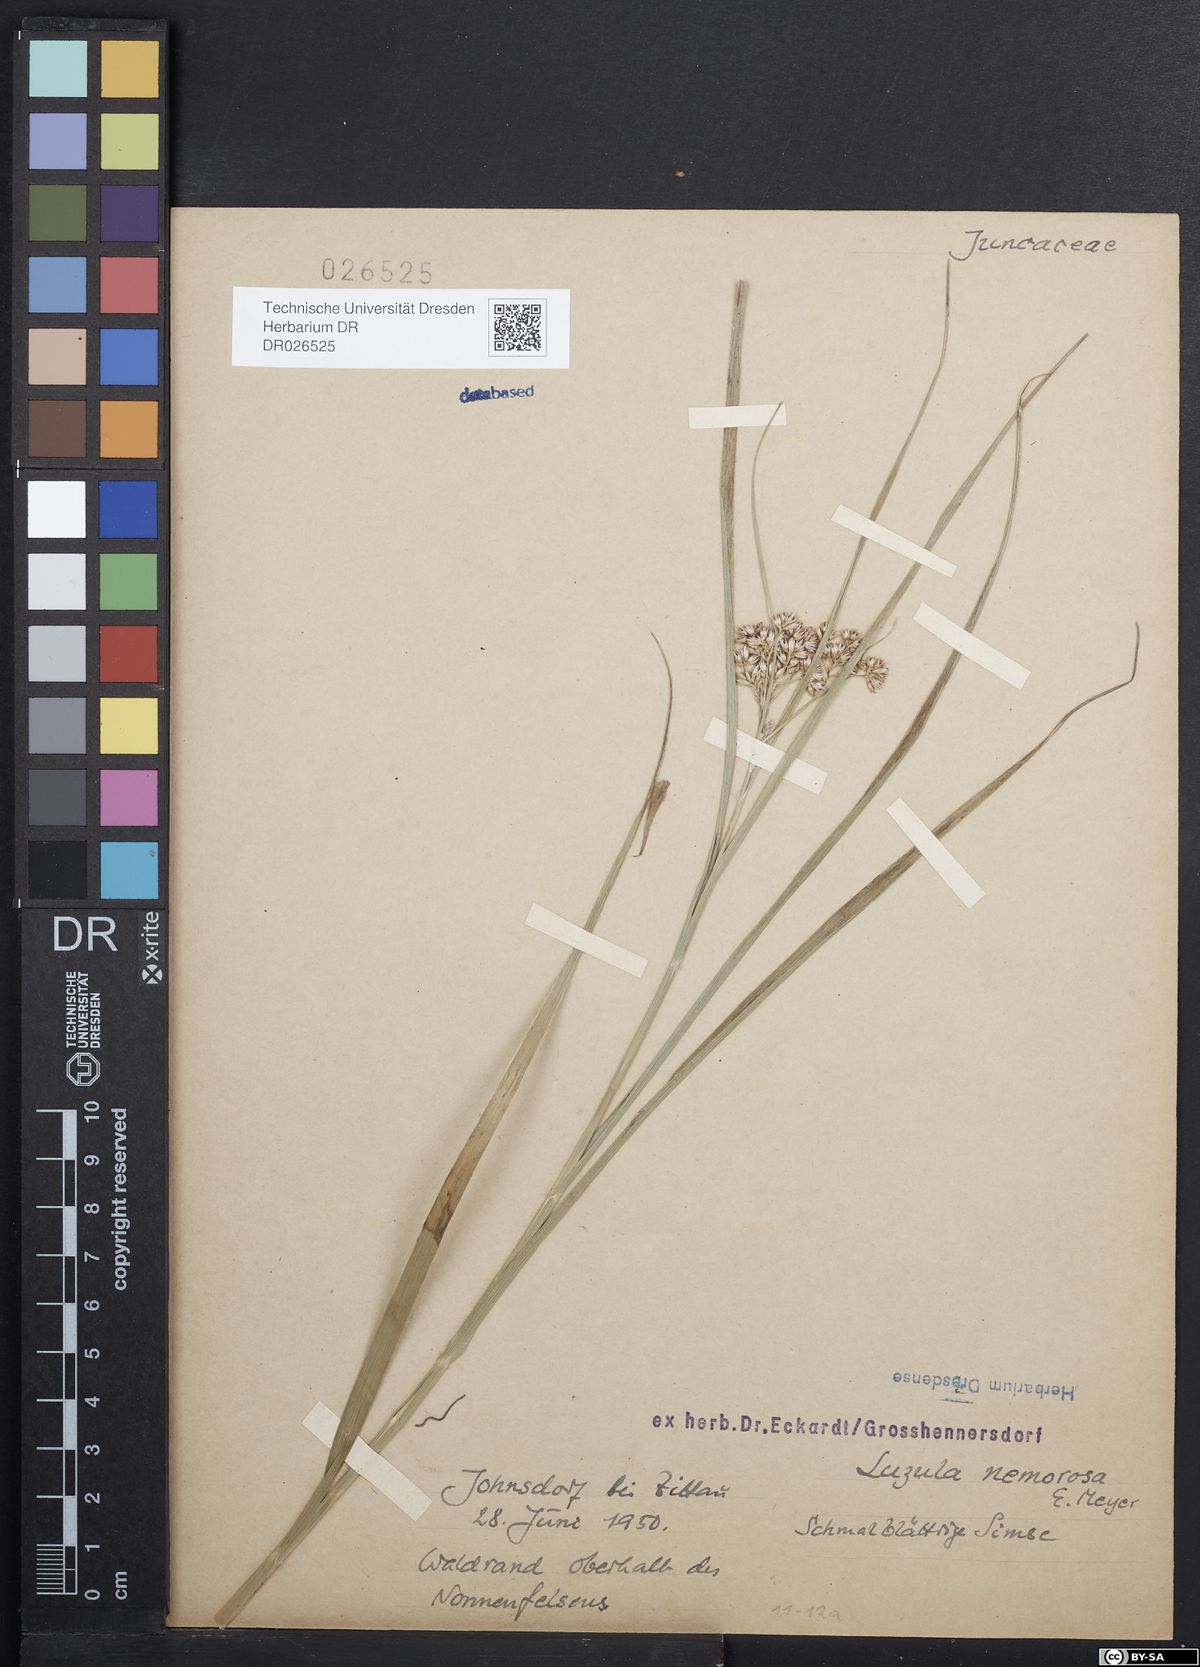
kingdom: Plantae
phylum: Tracheophyta
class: Liliopsida
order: Poales
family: Juncaceae
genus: Luzula
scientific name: Luzula luzuloides
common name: White wood-rush
